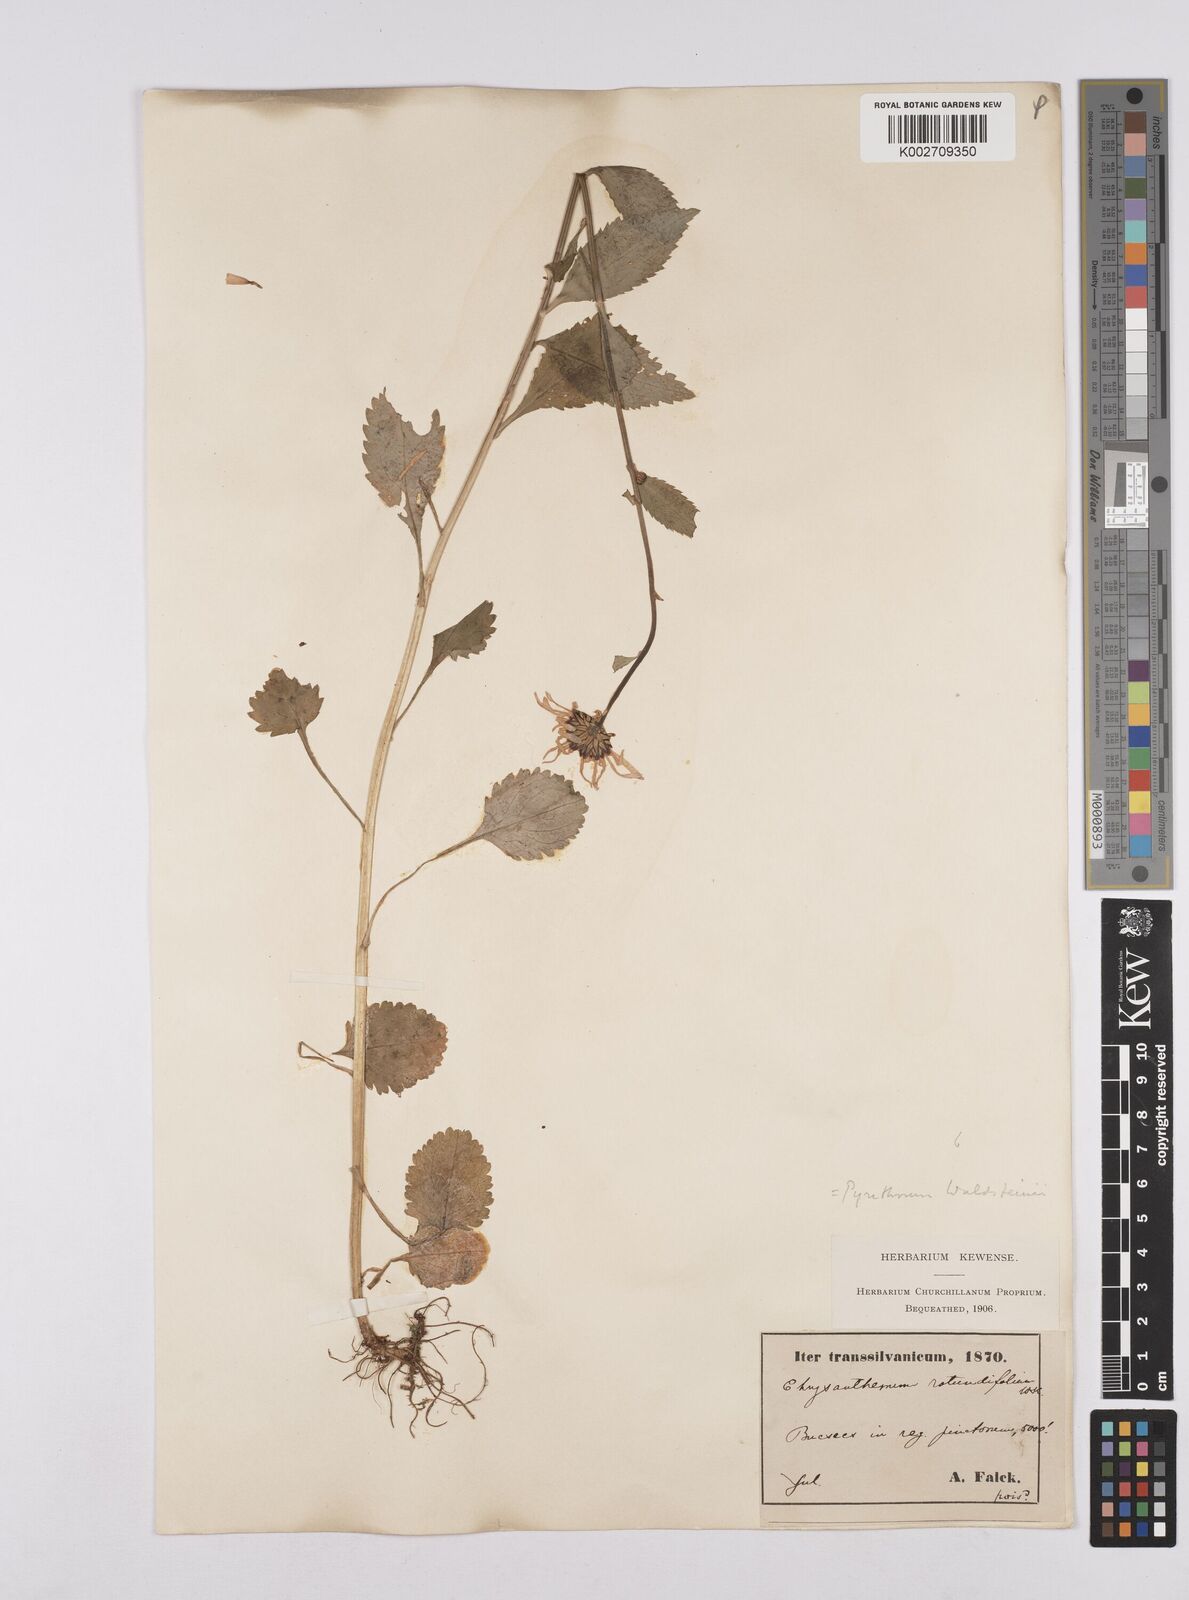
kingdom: Plantae
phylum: Tracheophyta
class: Magnoliopsida
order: Asterales
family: Asteraceae
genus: Leucanthemum
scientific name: Leucanthemum rotundifolium
